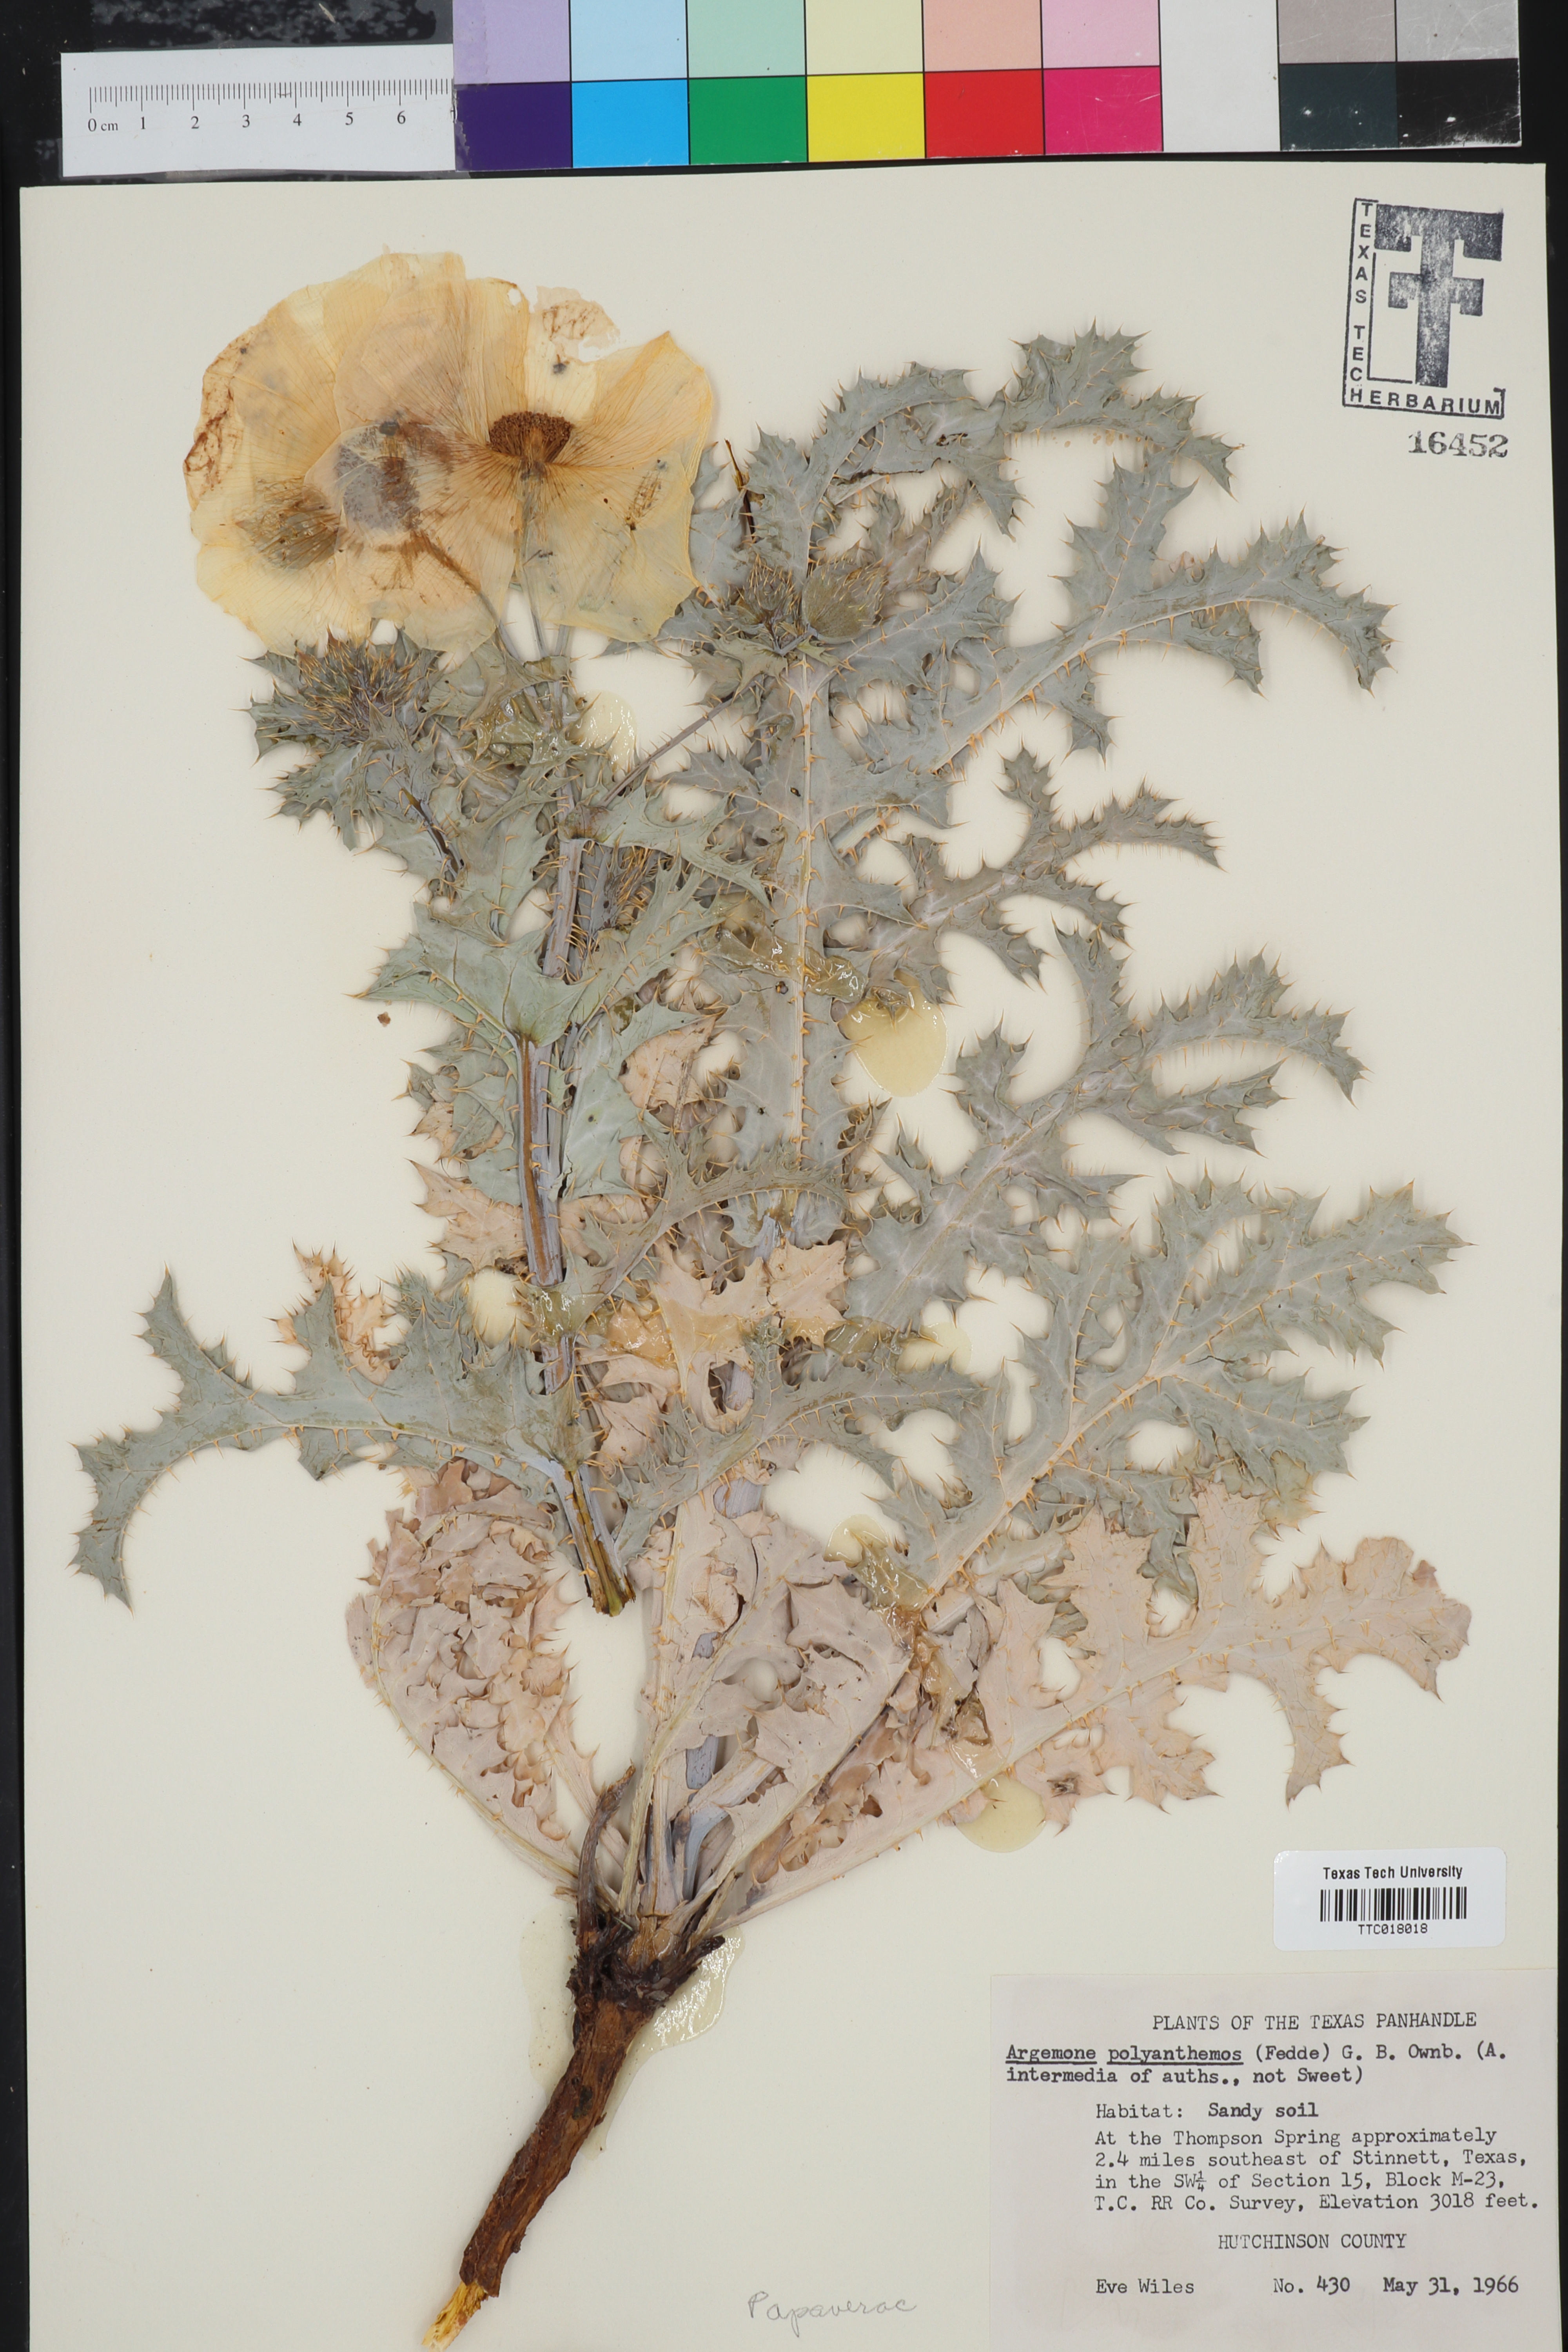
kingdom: Plantae
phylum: Tracheophyta
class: Magnoliopsida
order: Ranunculales
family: Papaveraceae
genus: Argemone
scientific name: Argemone polyanthemos
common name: Plains prickly-poppy
